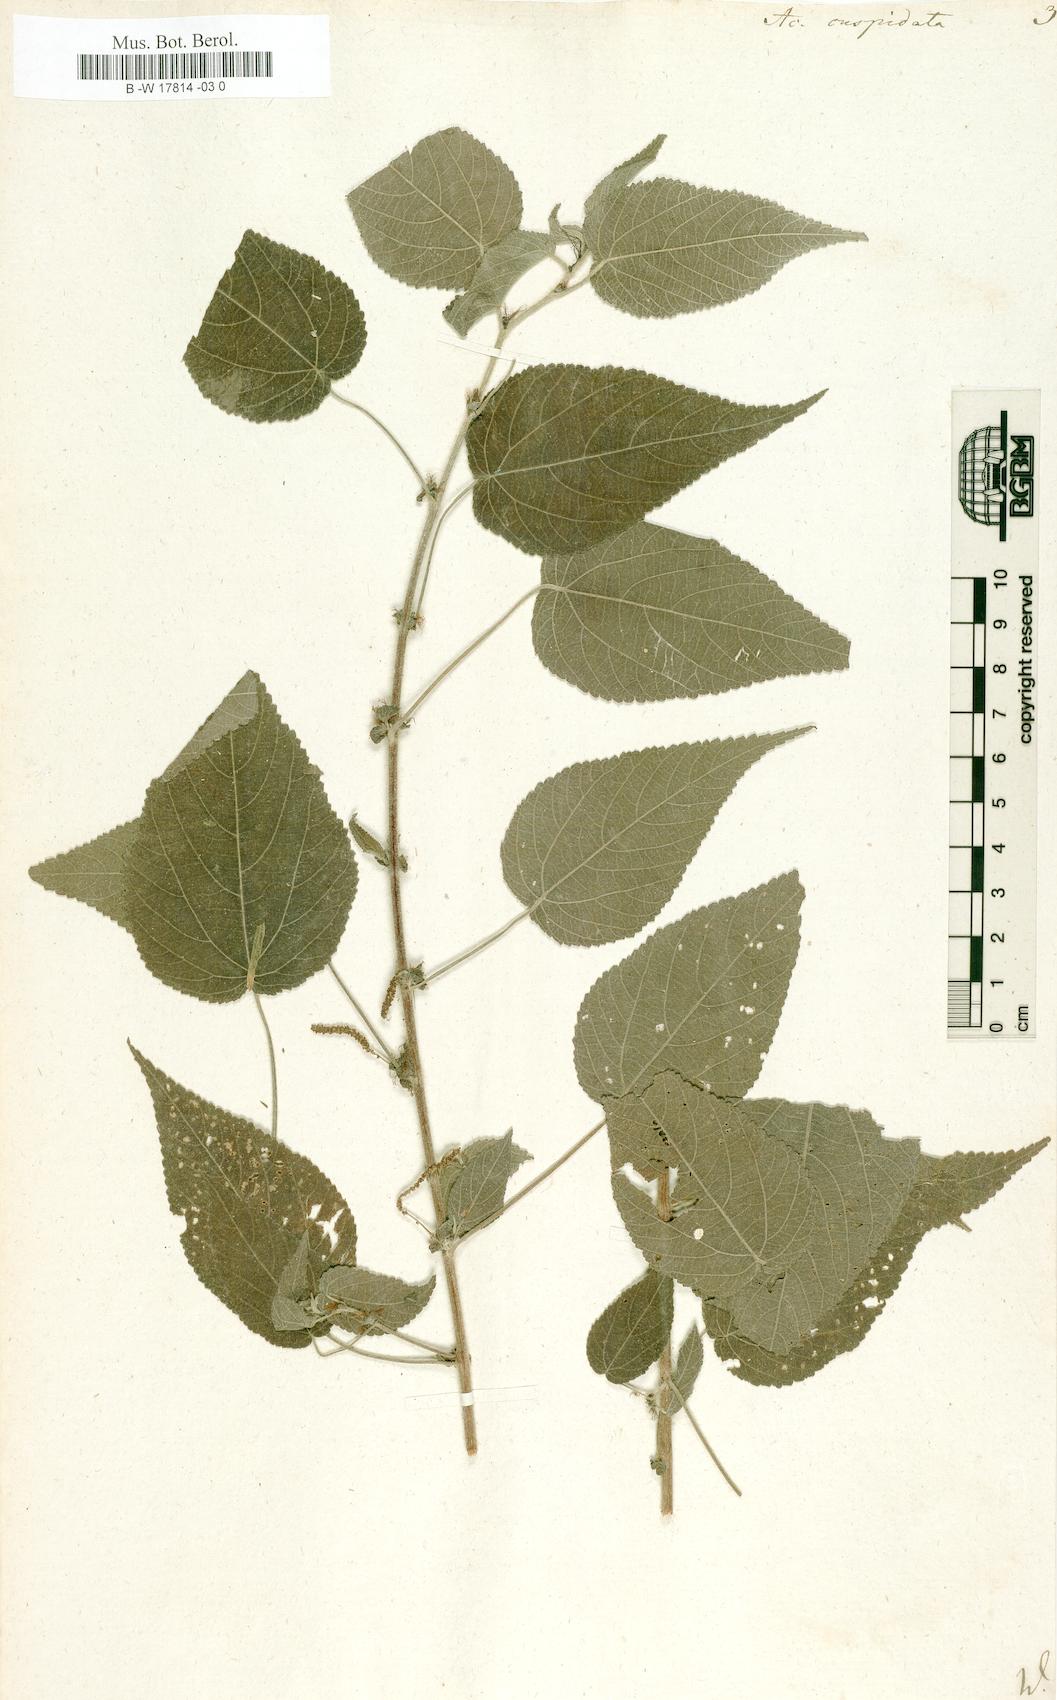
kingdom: Plantae
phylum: Tracheophyta
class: Magnoliopsida
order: Malpighiales
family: Euphorbiaceae
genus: Acalypha
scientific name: Acalypha cuspidata
